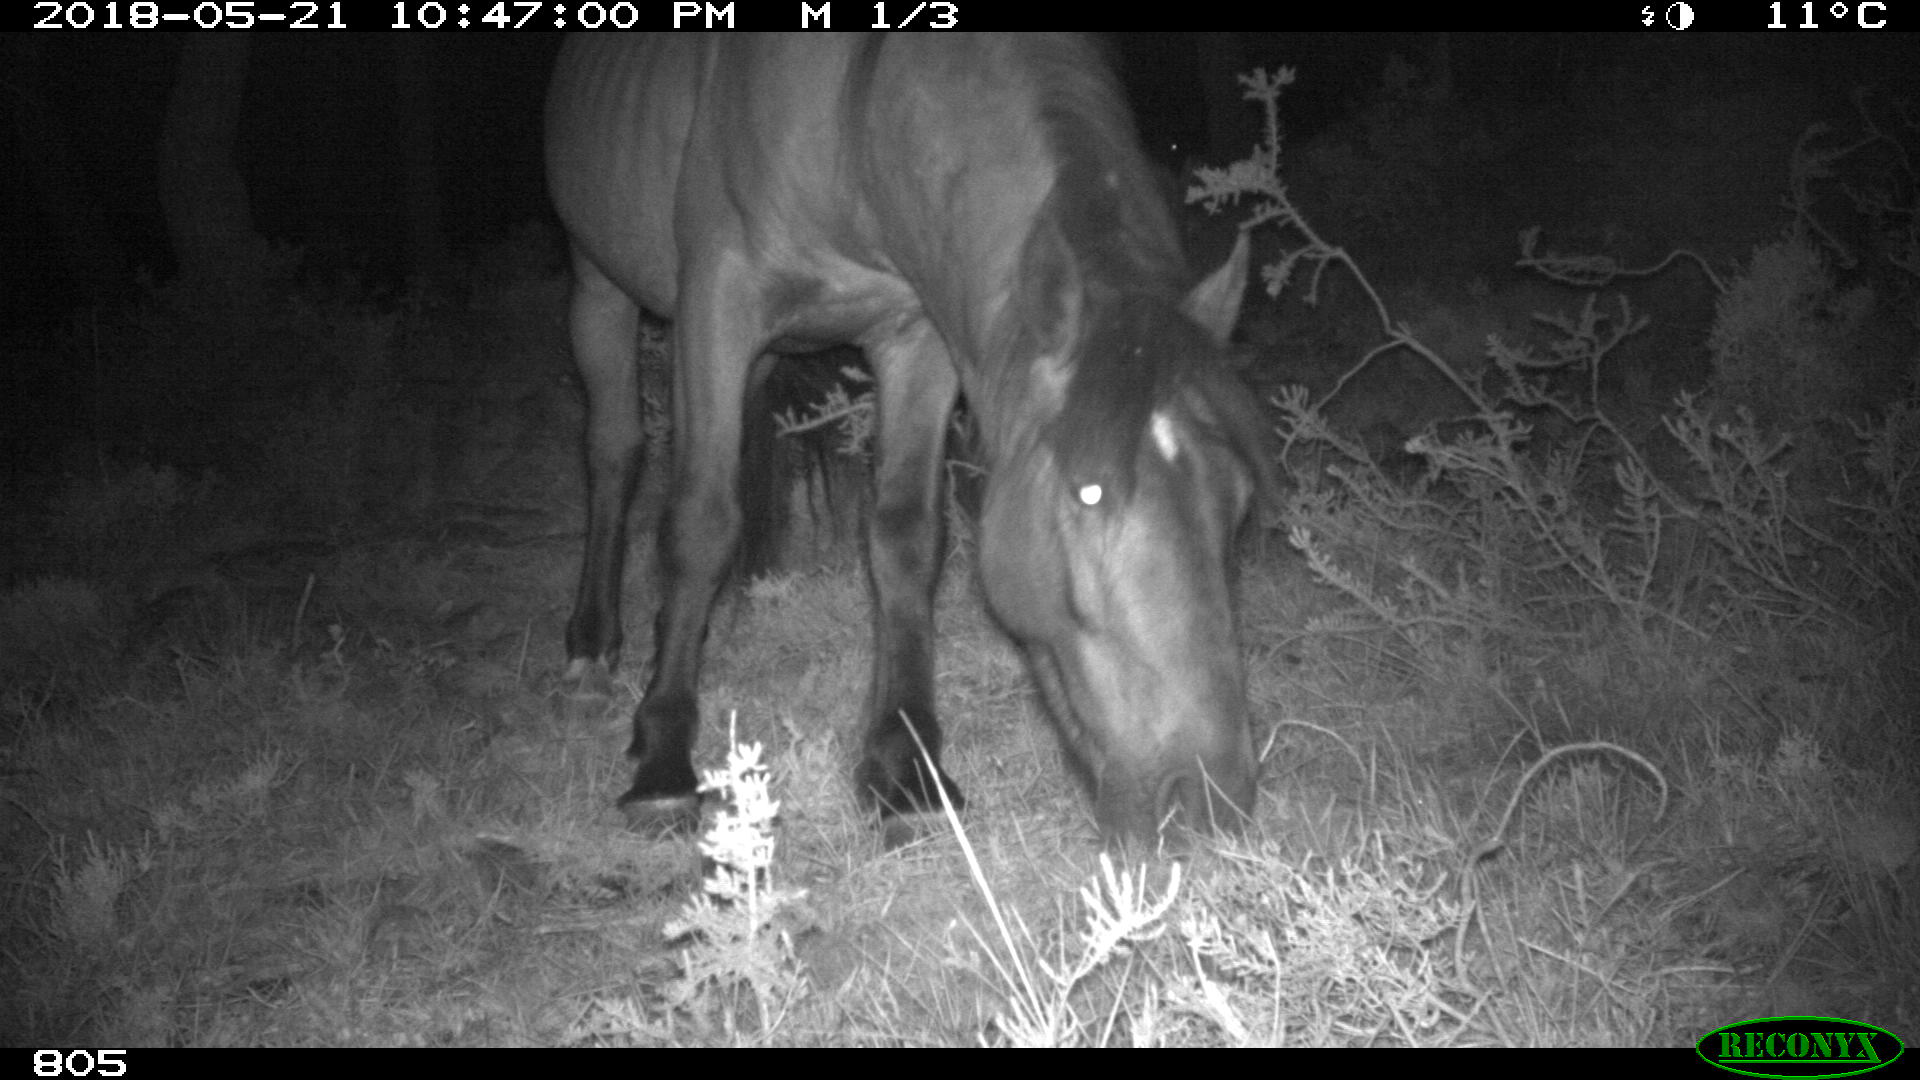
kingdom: Animalia
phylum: Chordata
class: Mammalia
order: Perissodactyla
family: Equidae
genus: Equus
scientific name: Equus caballus
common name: Horse
